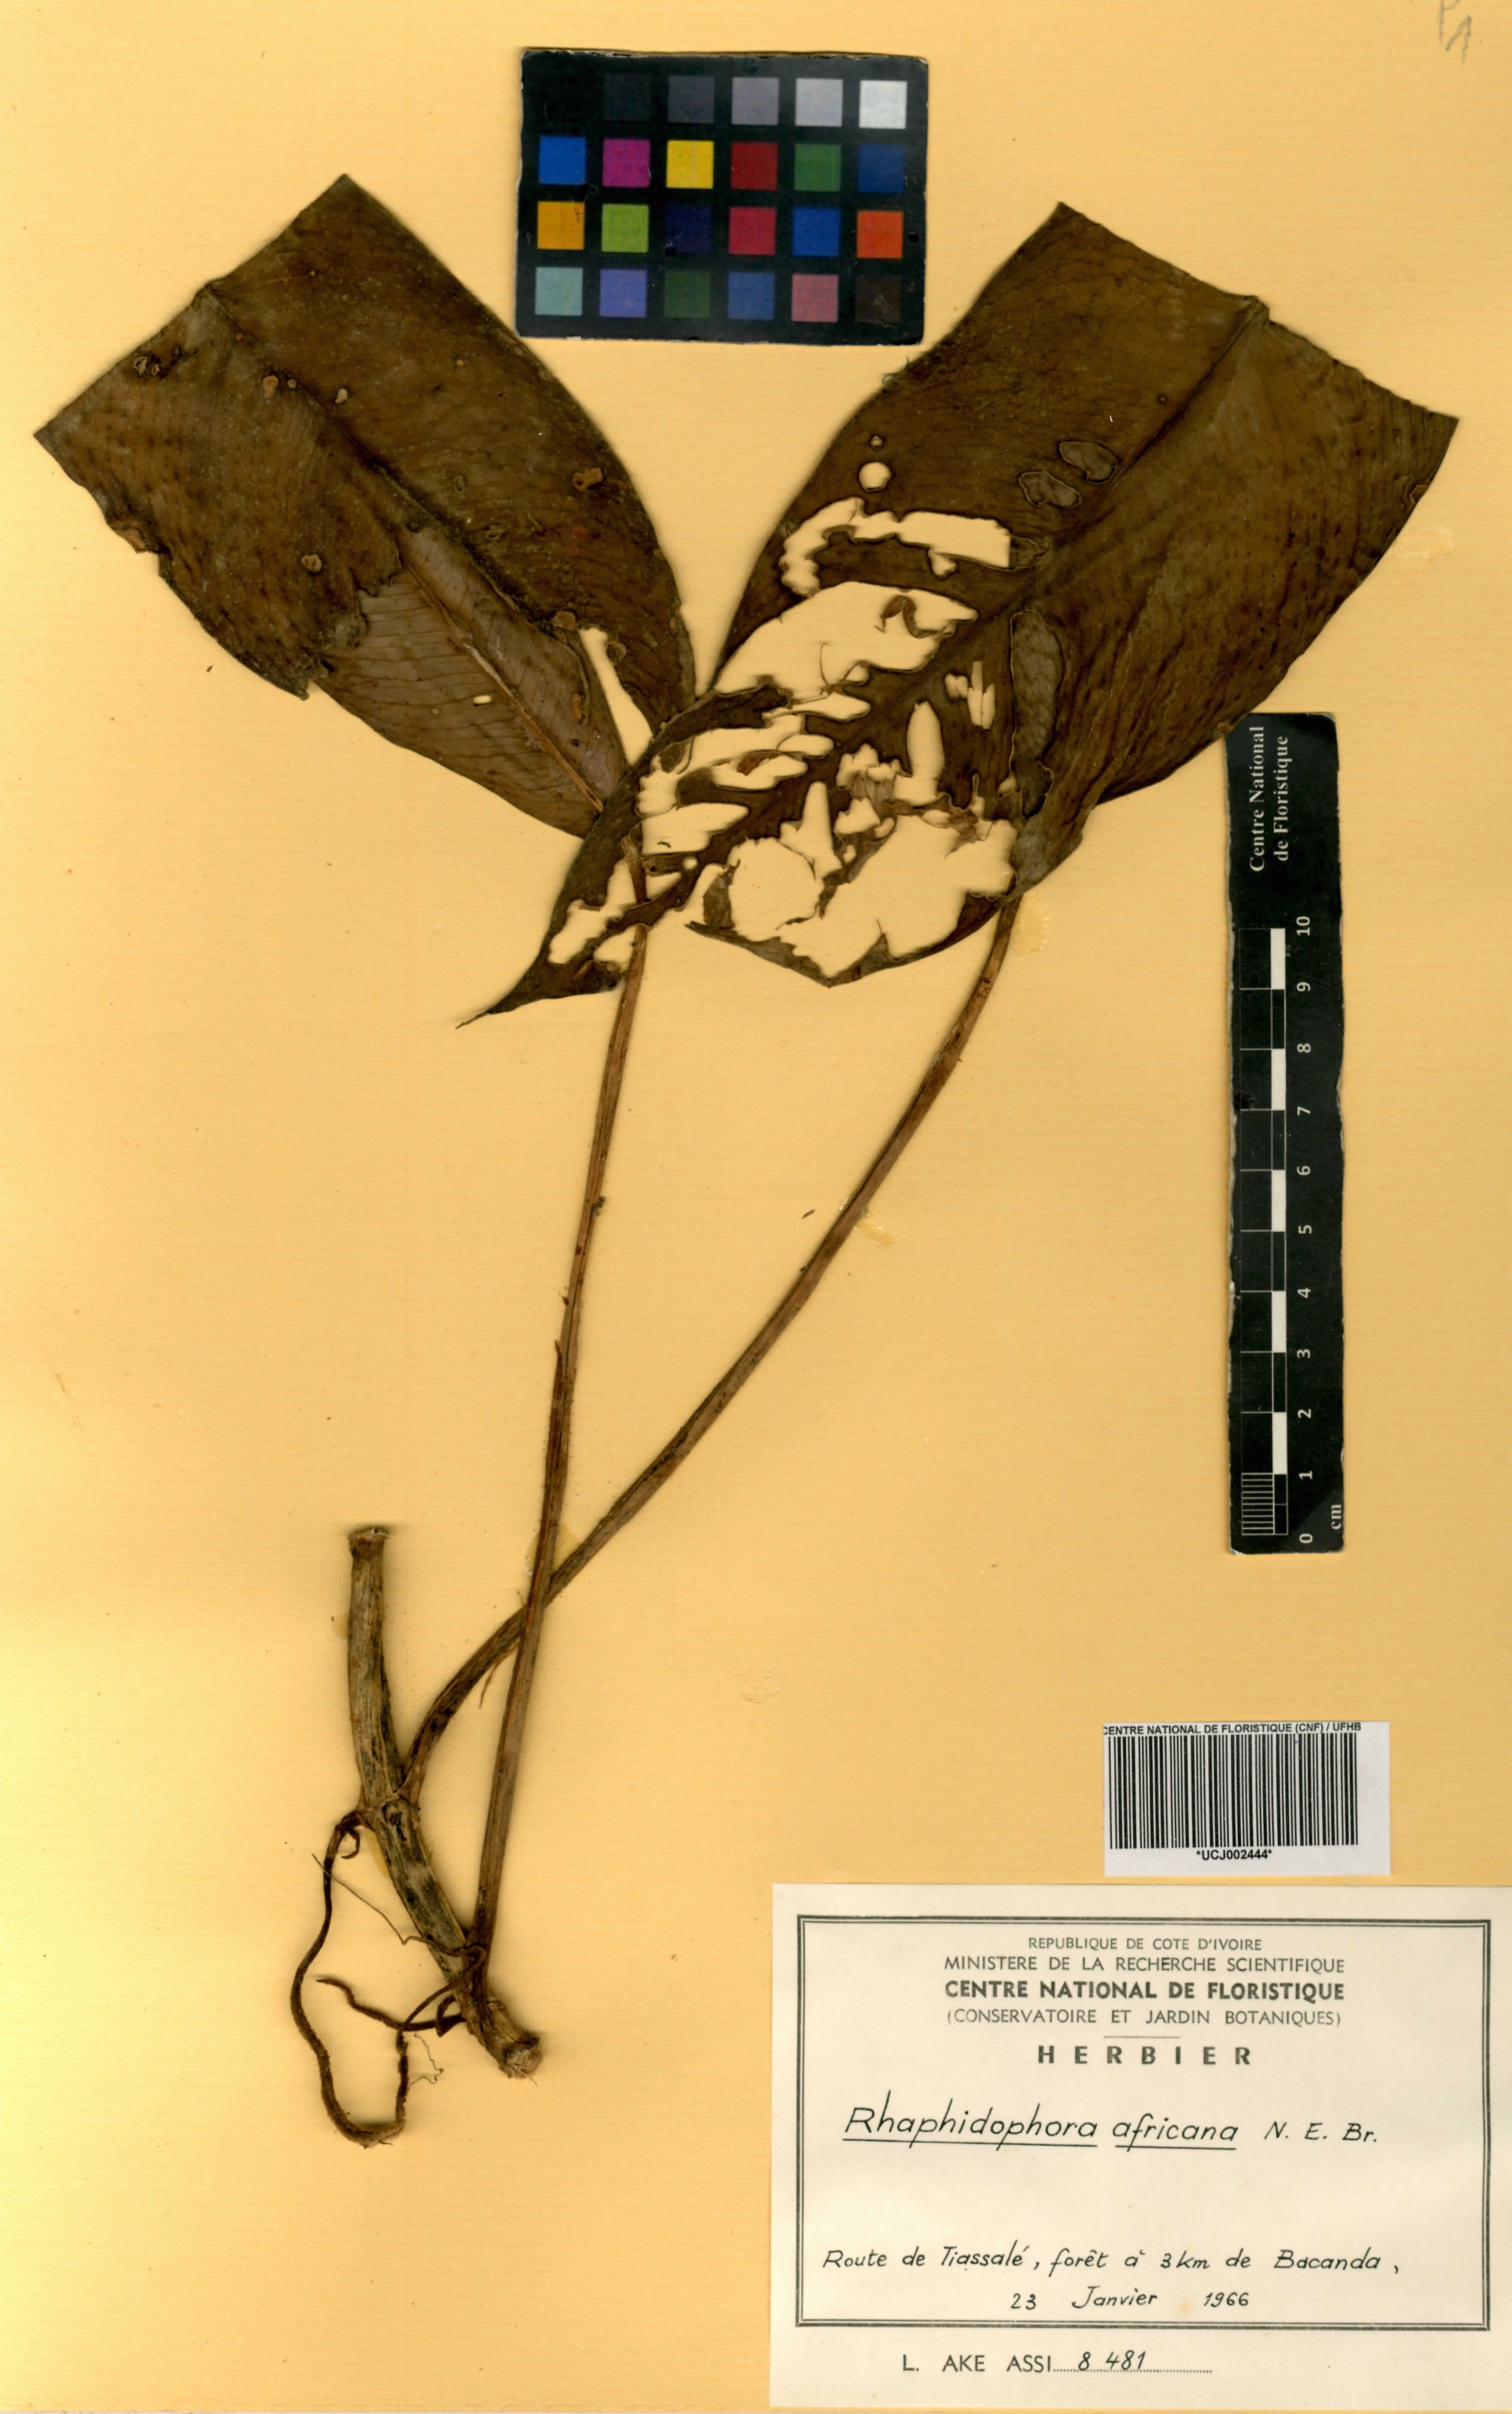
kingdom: Plantae
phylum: Tracheophyta
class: Liliopsida
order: Alismatales
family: Araceae
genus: Rhaphidophora
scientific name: Rhaphidophora africana
